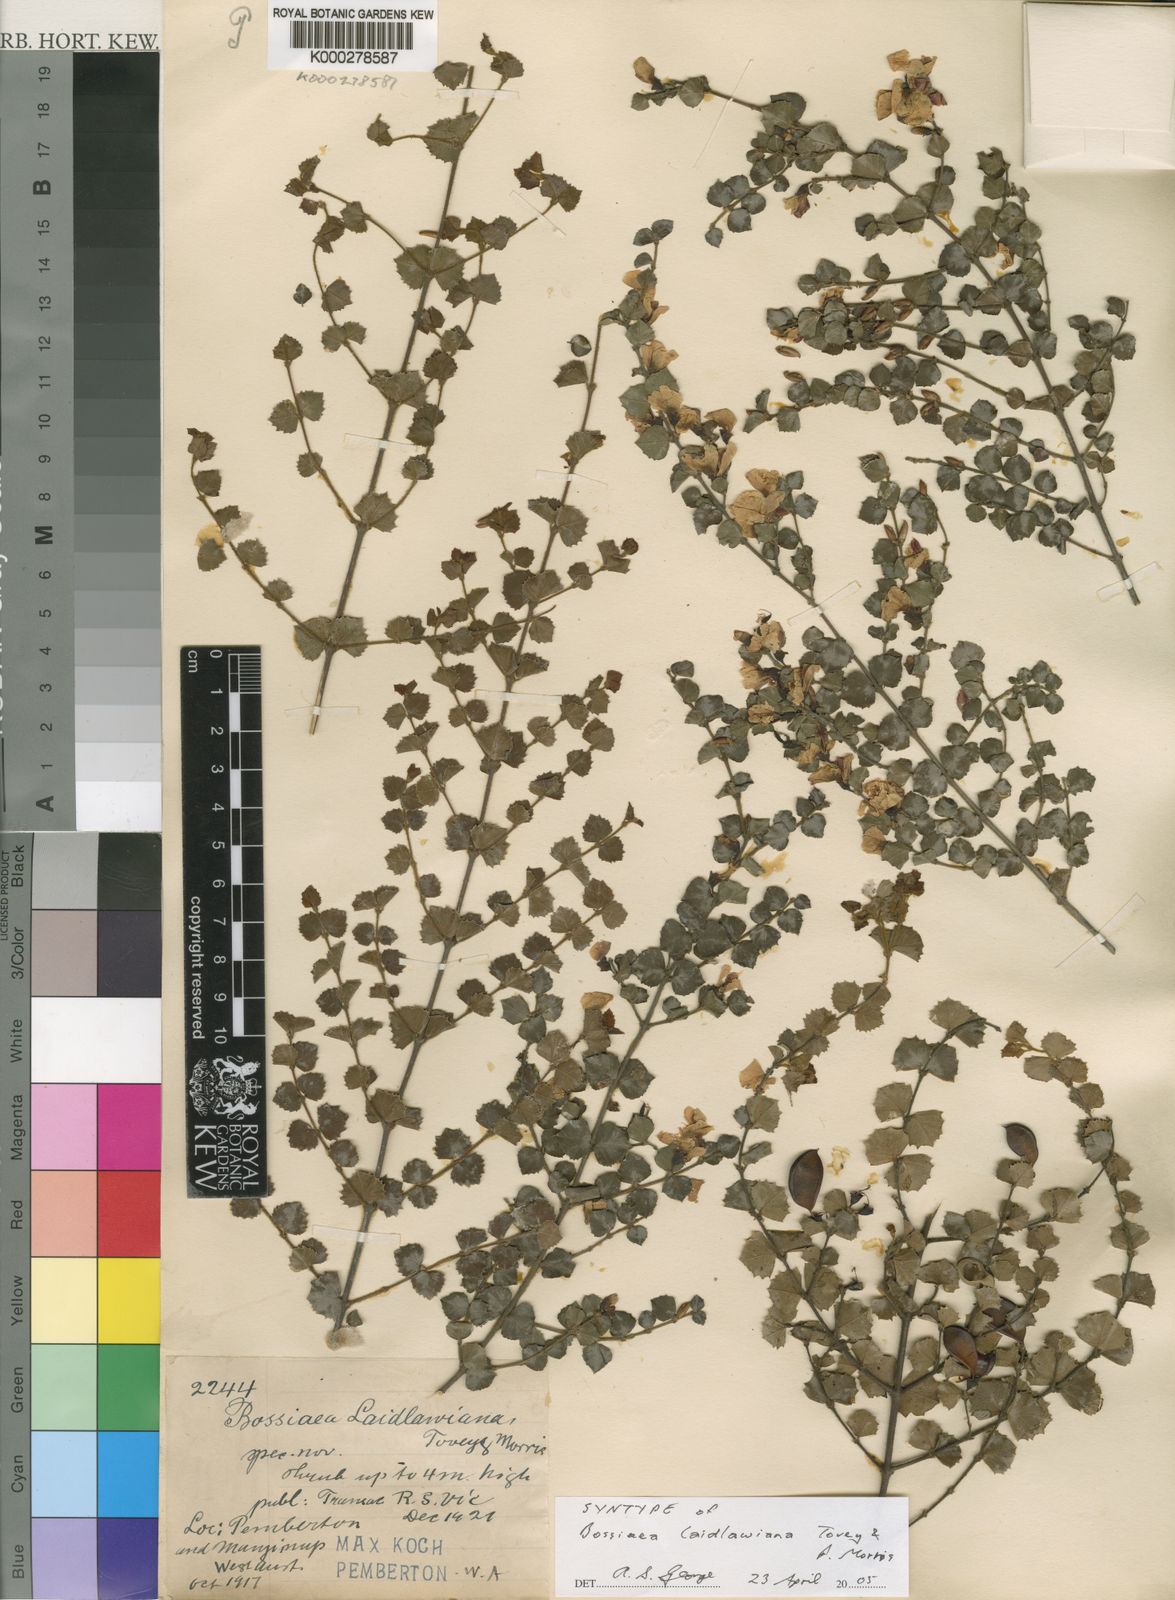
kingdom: Plantae
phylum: Tracheophyta
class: Magnoliopsida
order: Fabales
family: Fabaceae
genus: Bossiaea
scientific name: Bossiaea aquifolium
